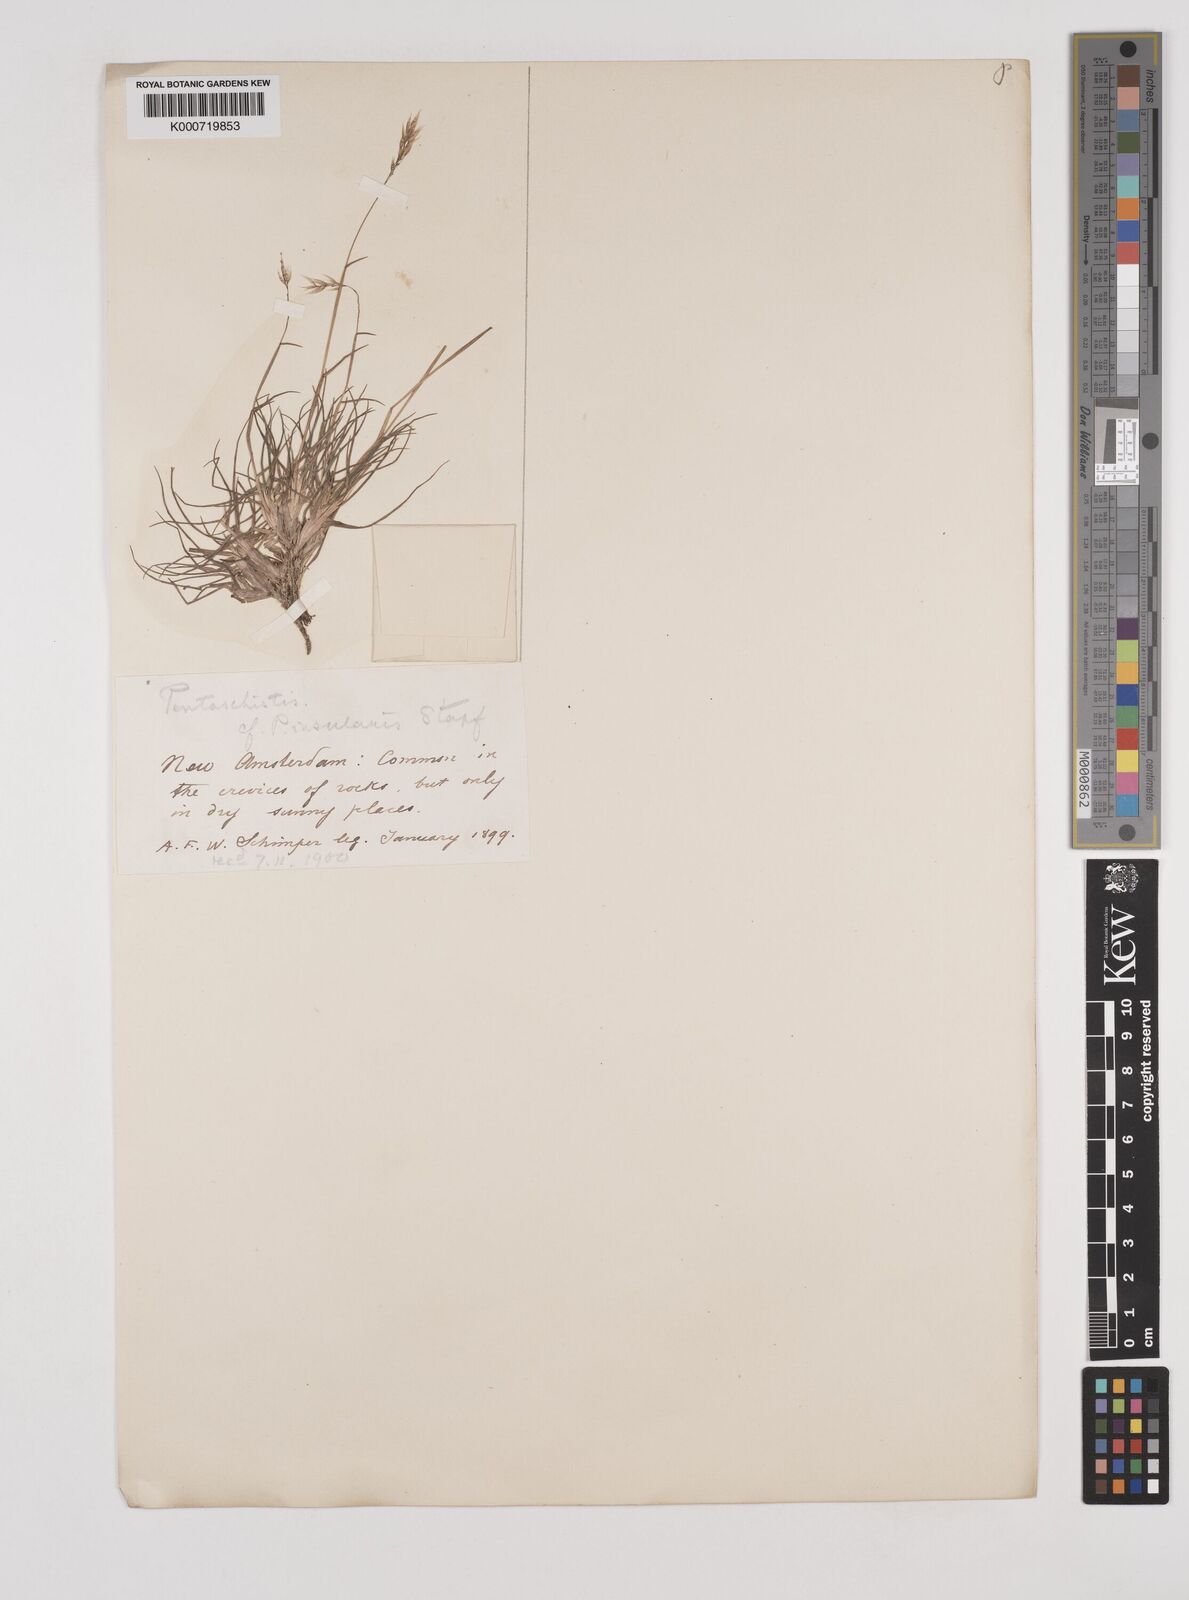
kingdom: Plantae
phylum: Tracheophyta
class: Liliopsida
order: Poales
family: Poaceae
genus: Pentameris
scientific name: Pentameris insularis
